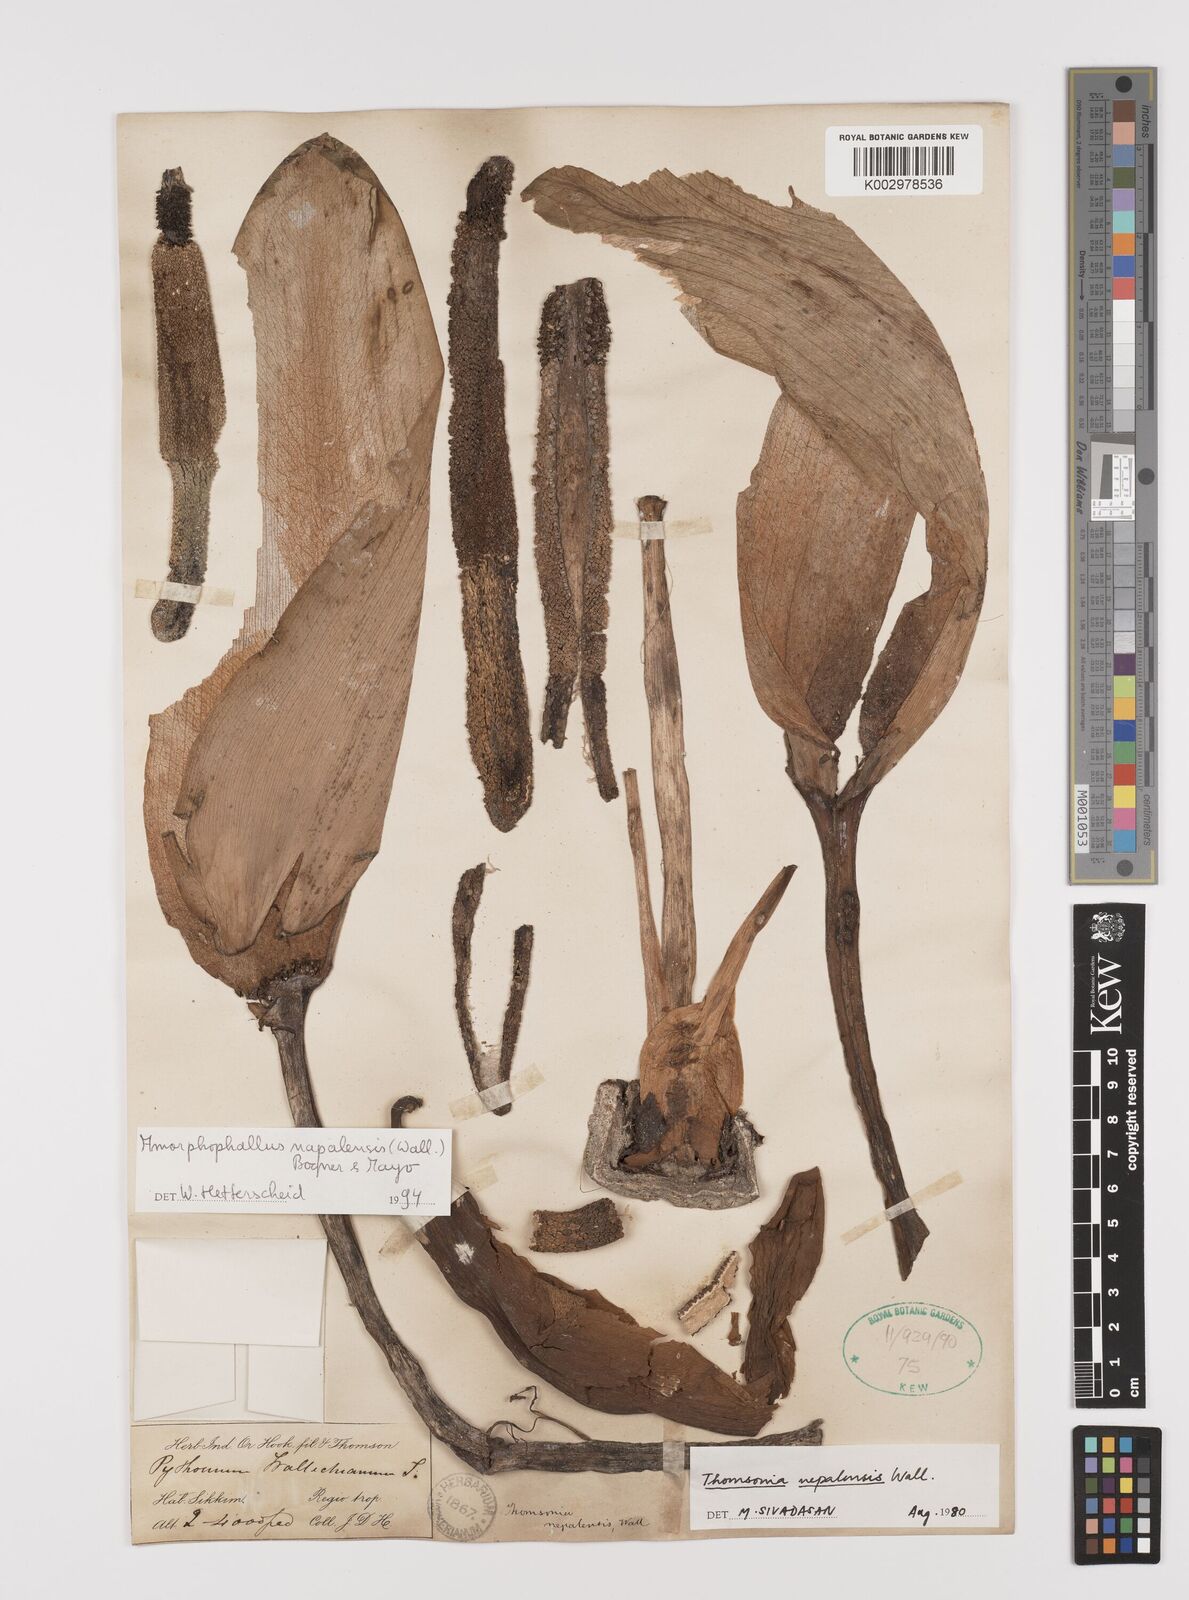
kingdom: Plantae
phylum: Tracheophyta
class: Liliopsida
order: Alismatales
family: Araceae
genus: Amorphophallus
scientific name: Amorphophallus napalensis
